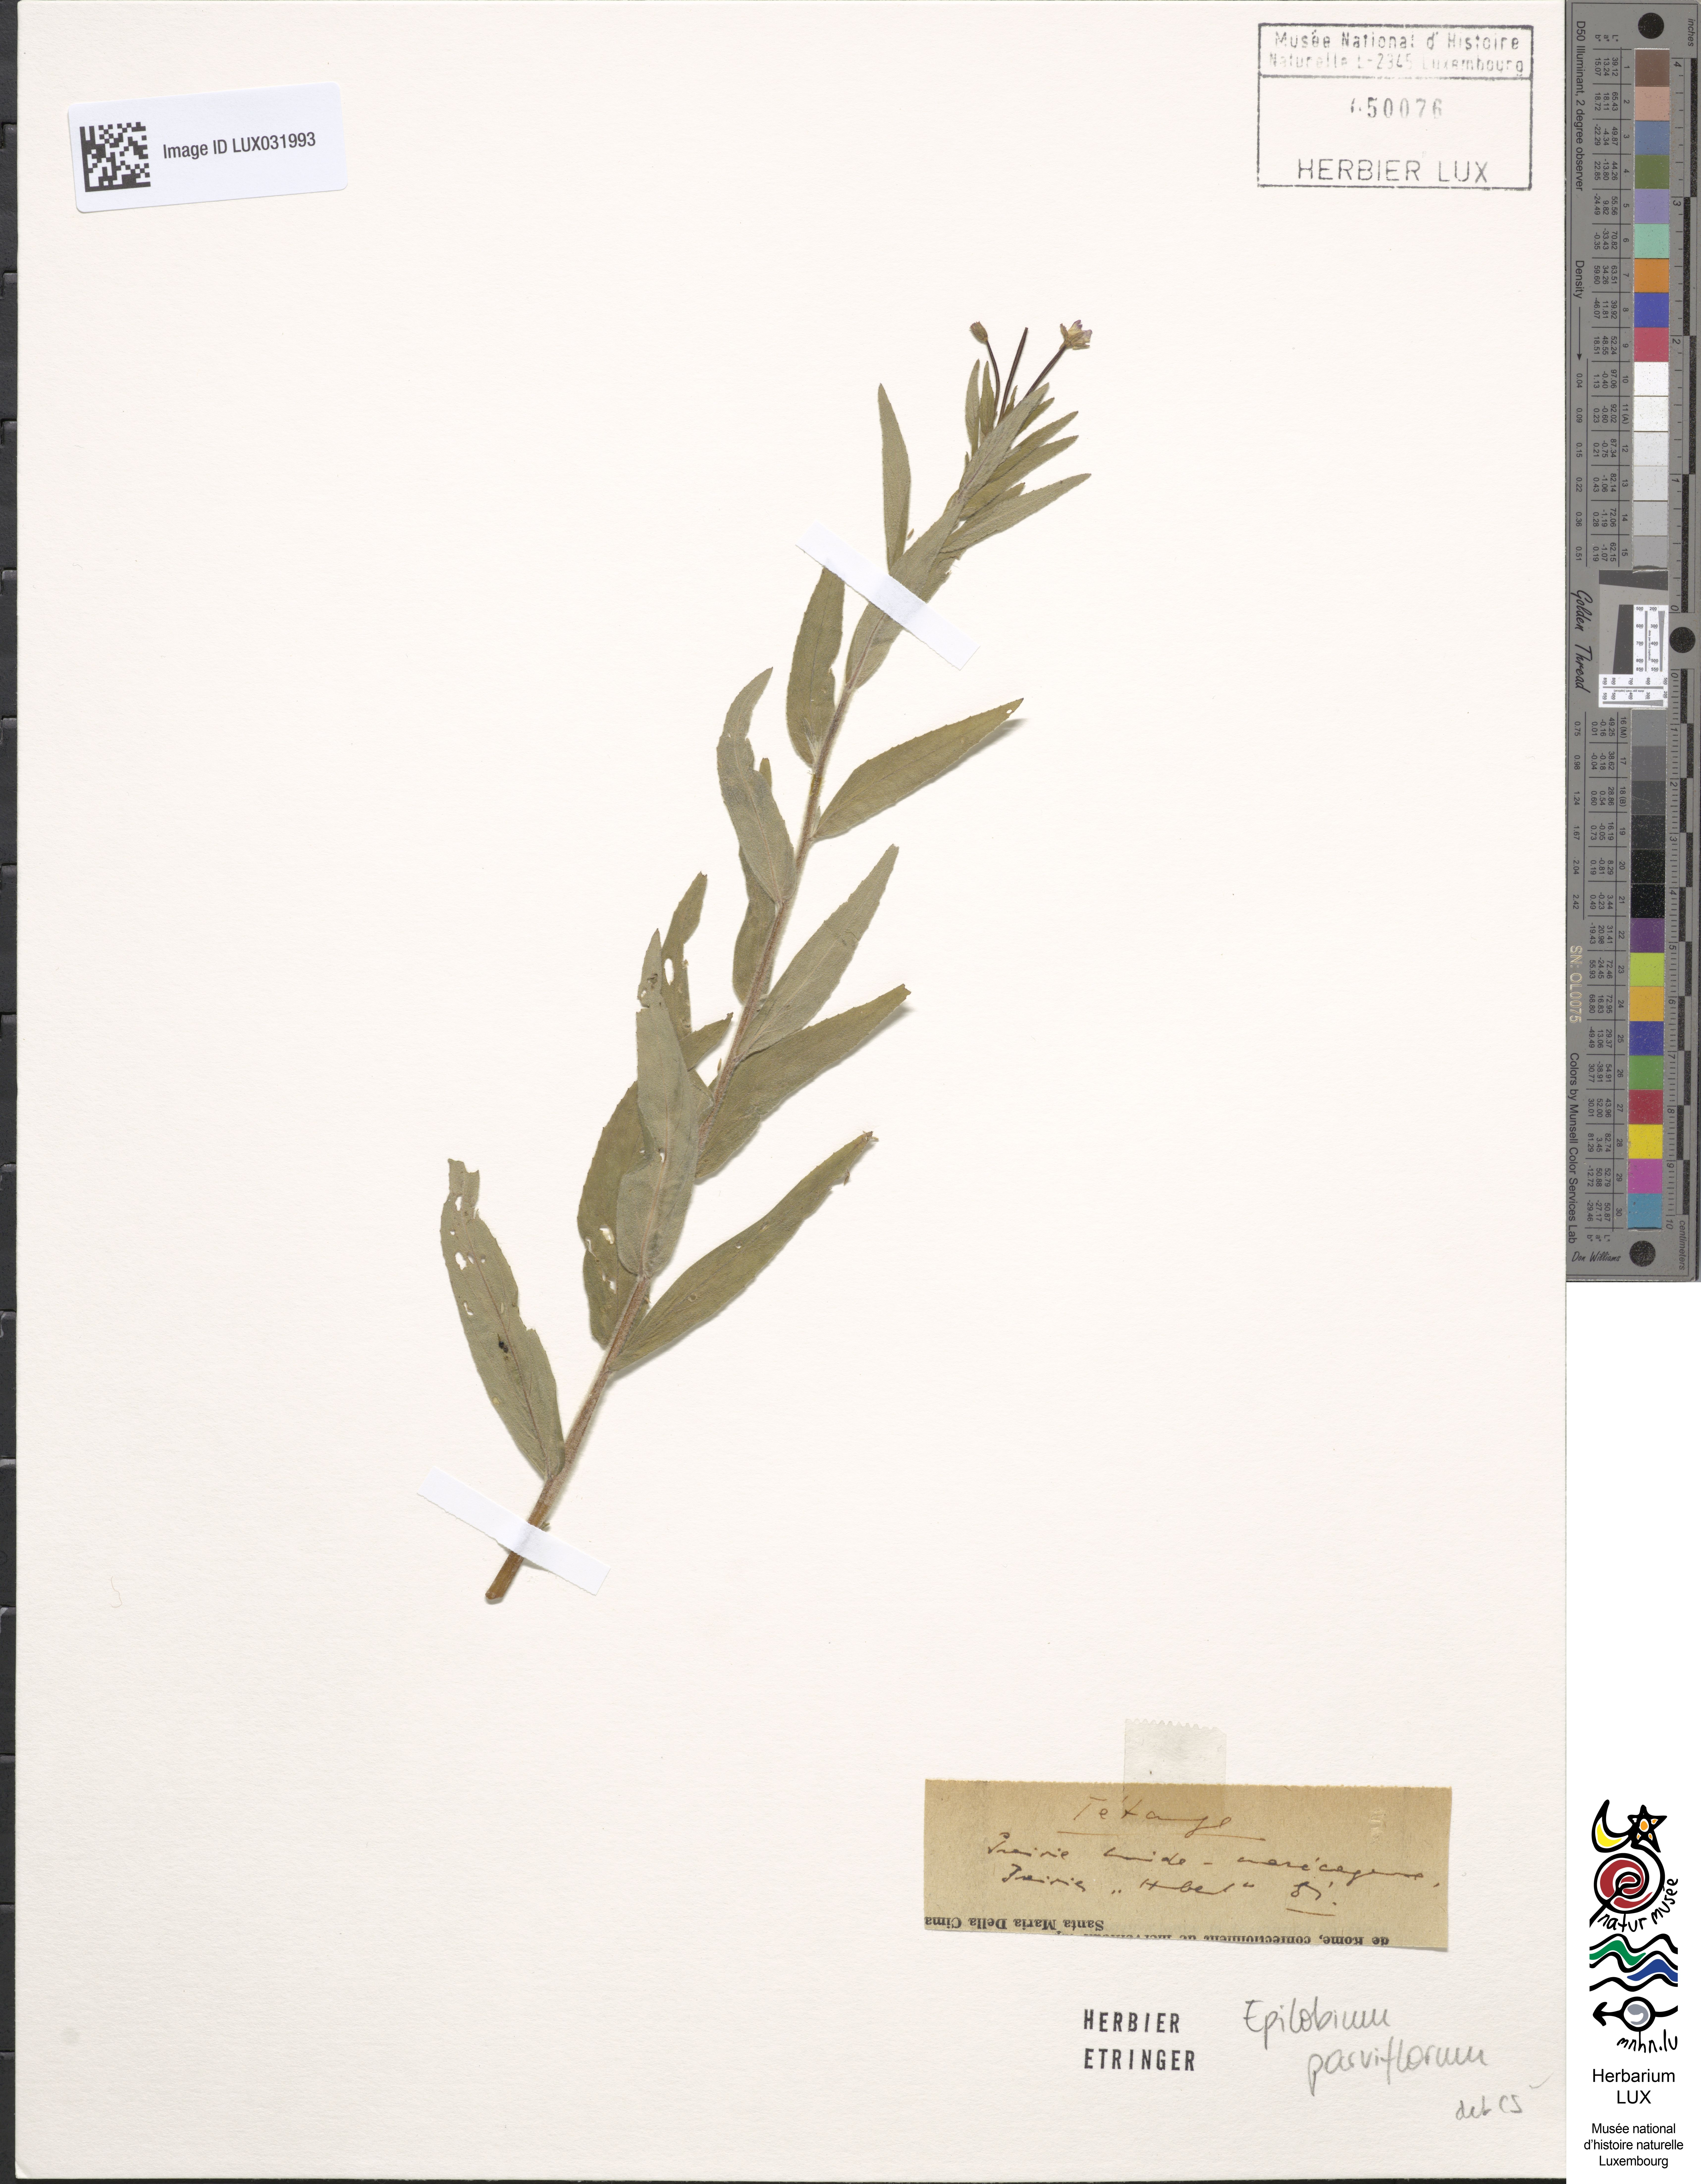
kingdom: Plantae
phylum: Tracheophyta
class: Magnoliopsida
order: Myrtales
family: Onagraceae
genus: Epilobium
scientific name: Epilobium parviflorum
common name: Hoary willowherb
